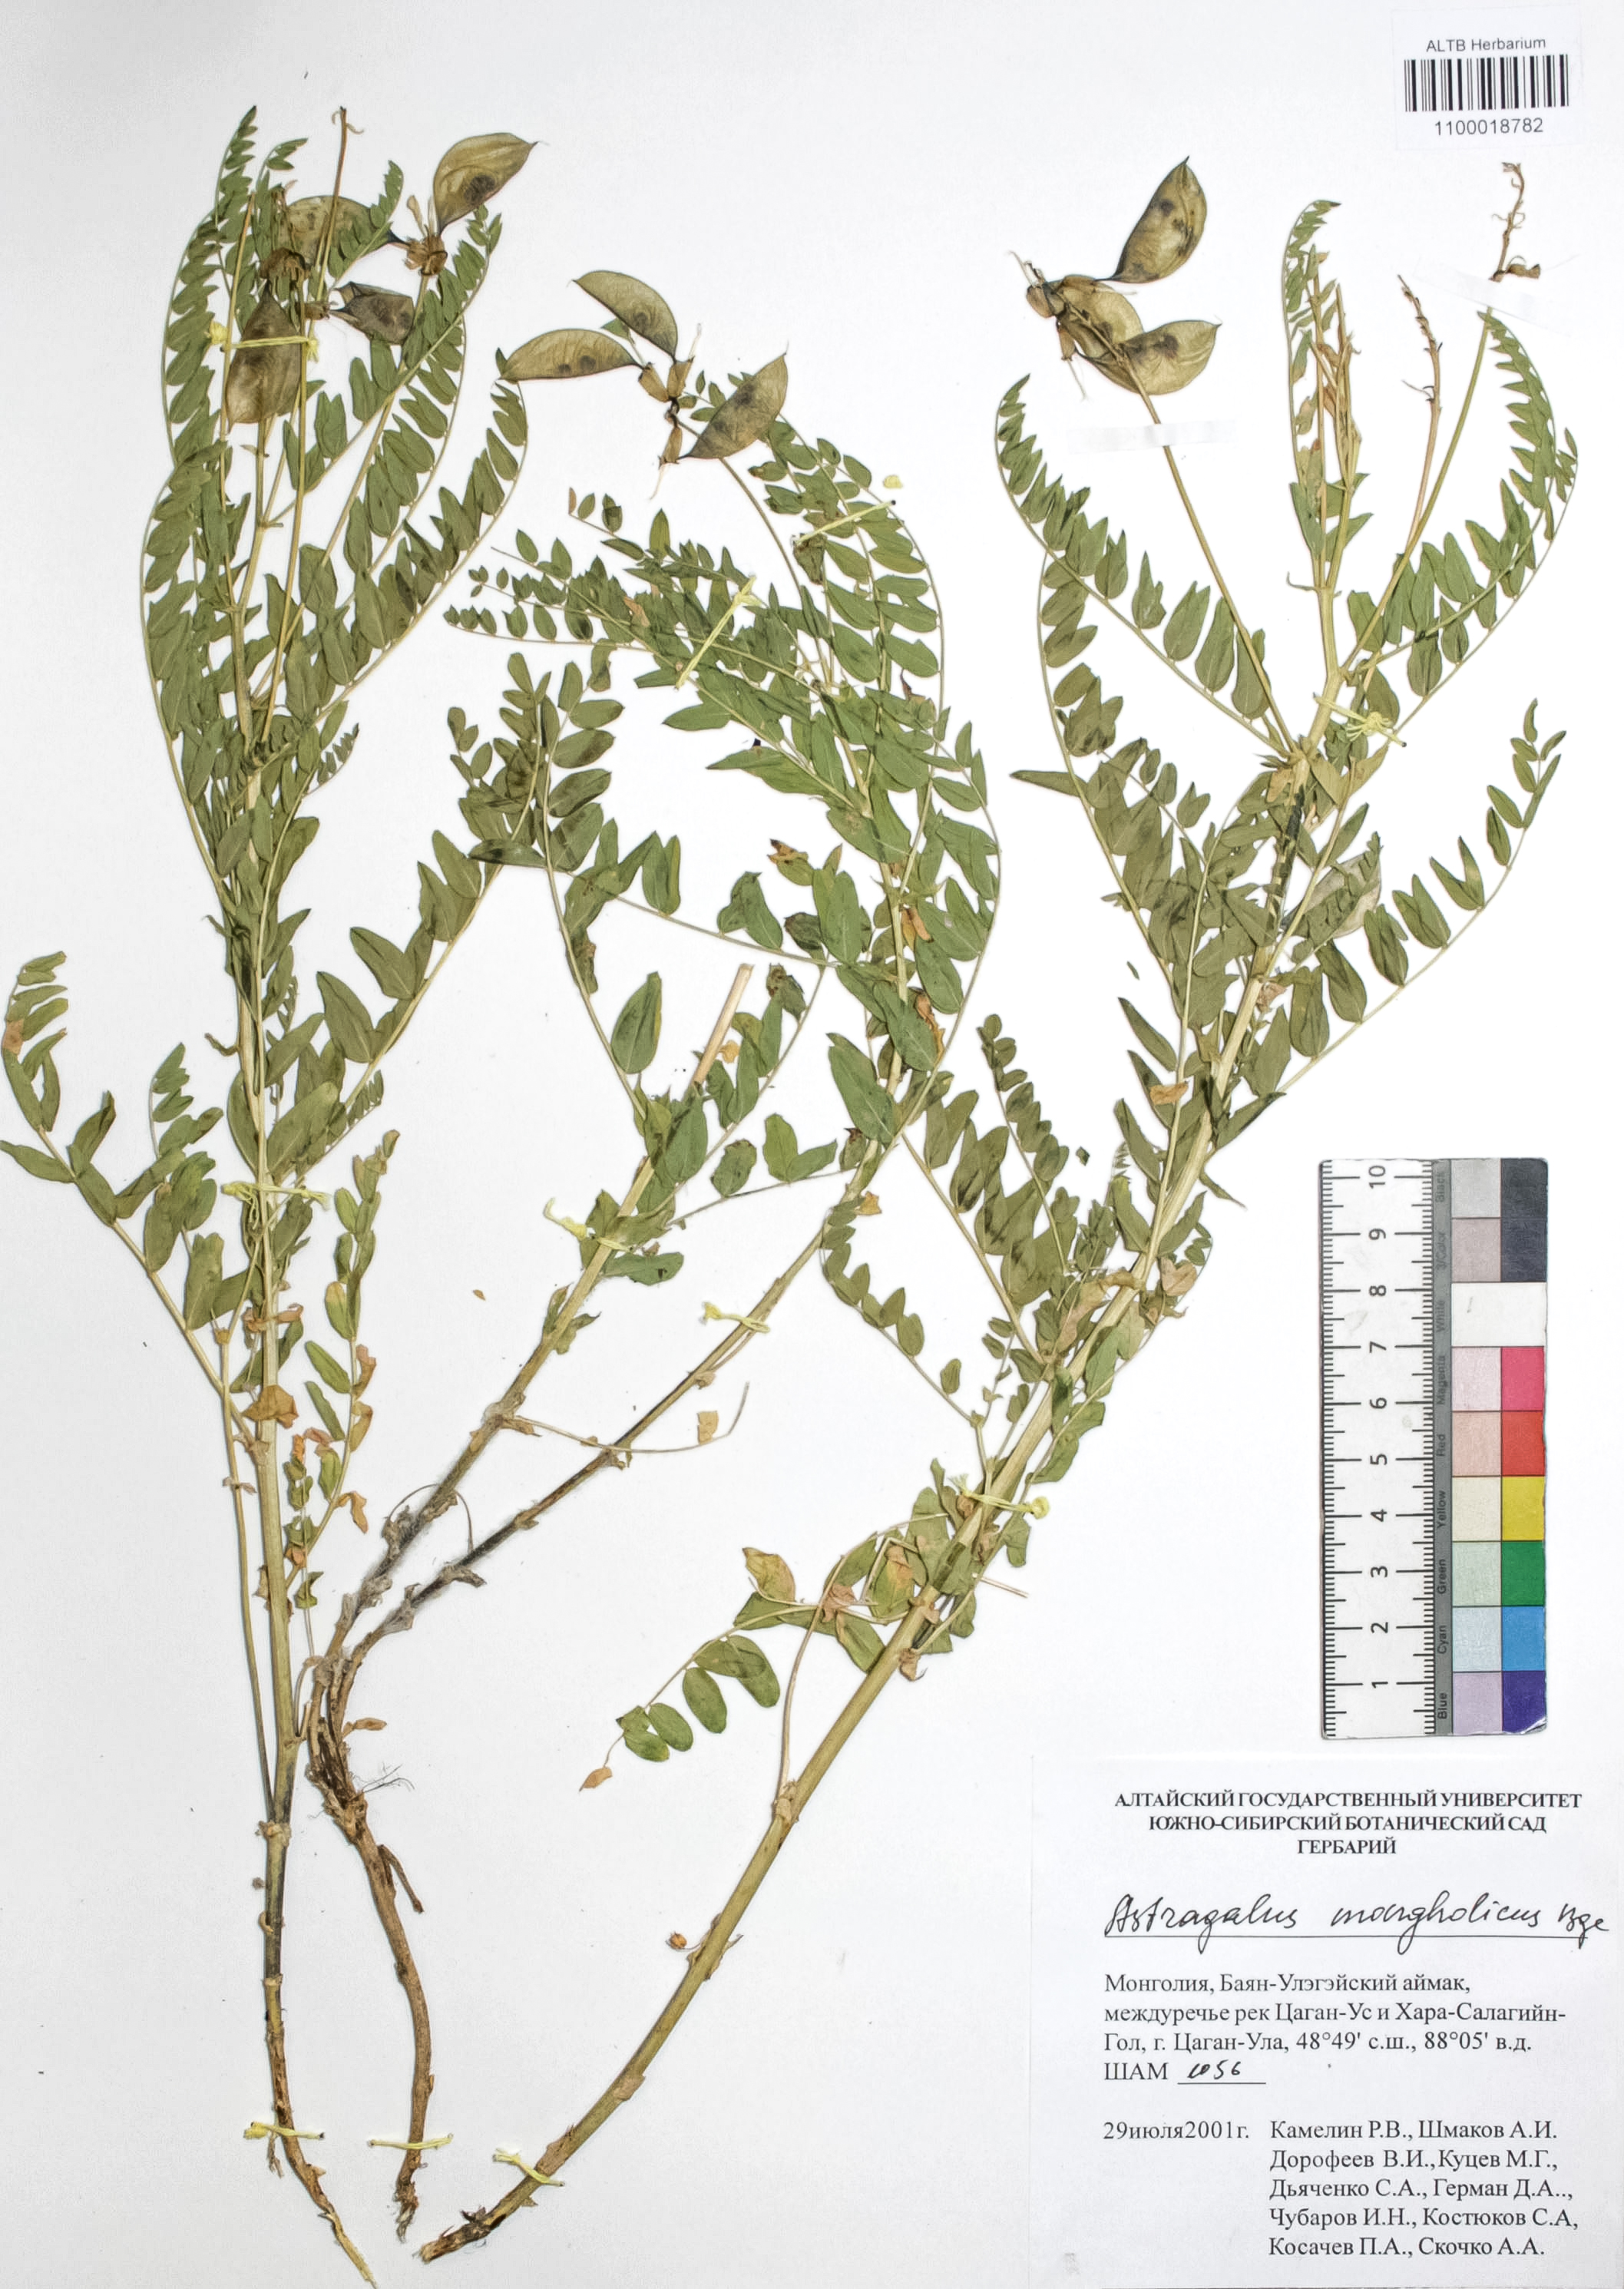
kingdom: Plantae
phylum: Tracheophyta
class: Magnoliopsida
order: Fabales
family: Fabaceae
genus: Astragalus
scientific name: Astragalus mongolicus
